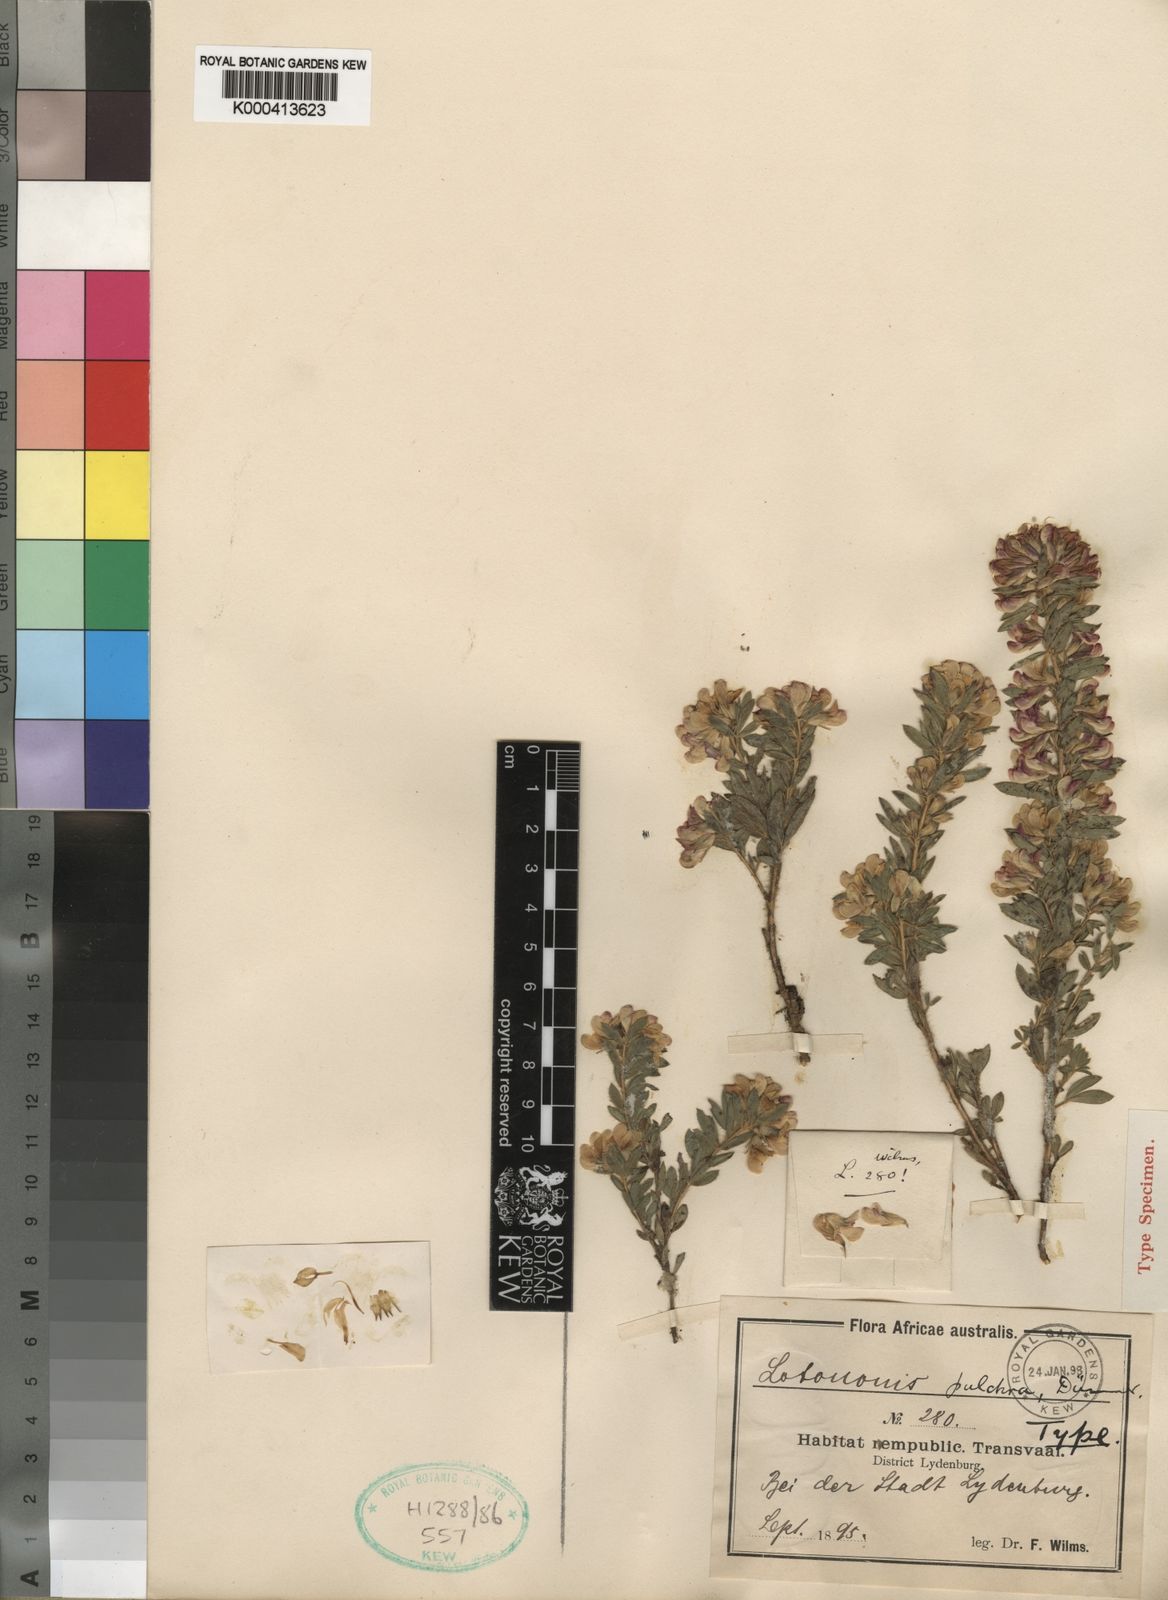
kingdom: Plantae
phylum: Tracheophyta
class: Magnoliopsida
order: Fabales
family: Fabaceae
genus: Leobordea
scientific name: Leobordea pulchra
